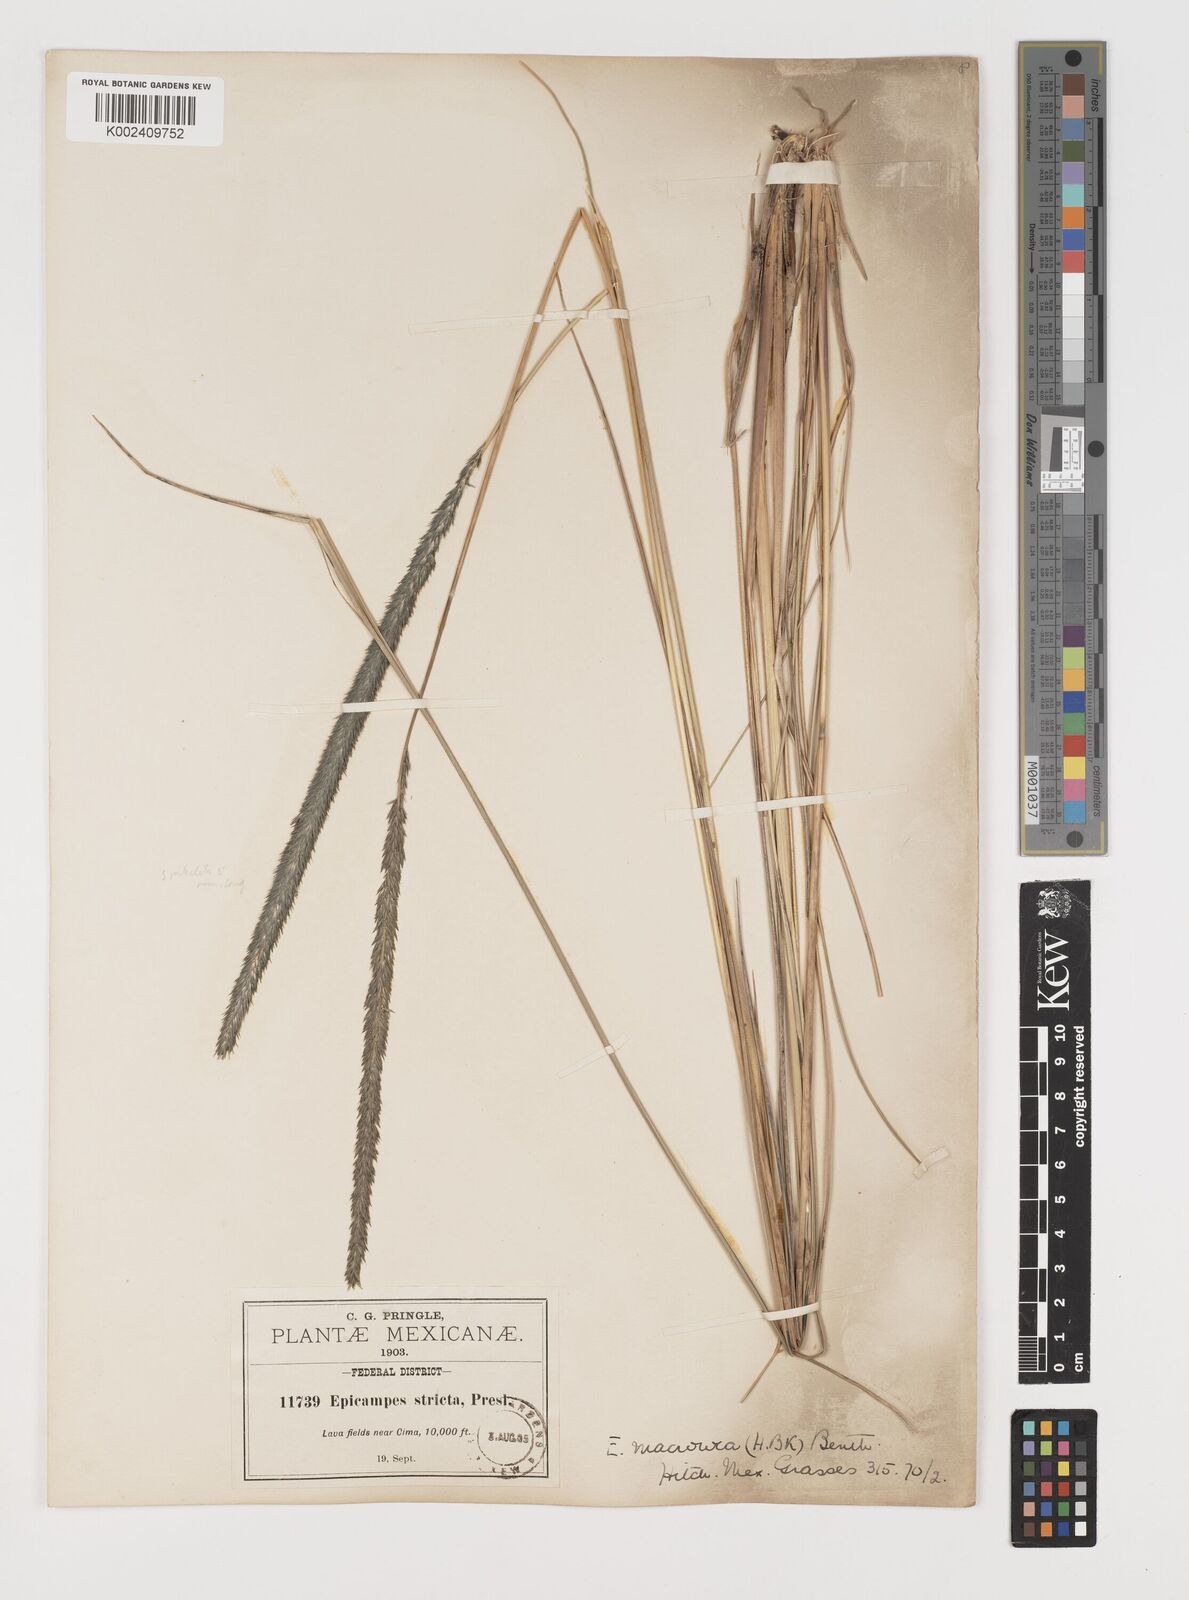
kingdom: Plantae
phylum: Tracheophyta
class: Liliopsida
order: Poales
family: Poaceae
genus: Muhlenbergia
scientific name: Muhlenbergia nigra
